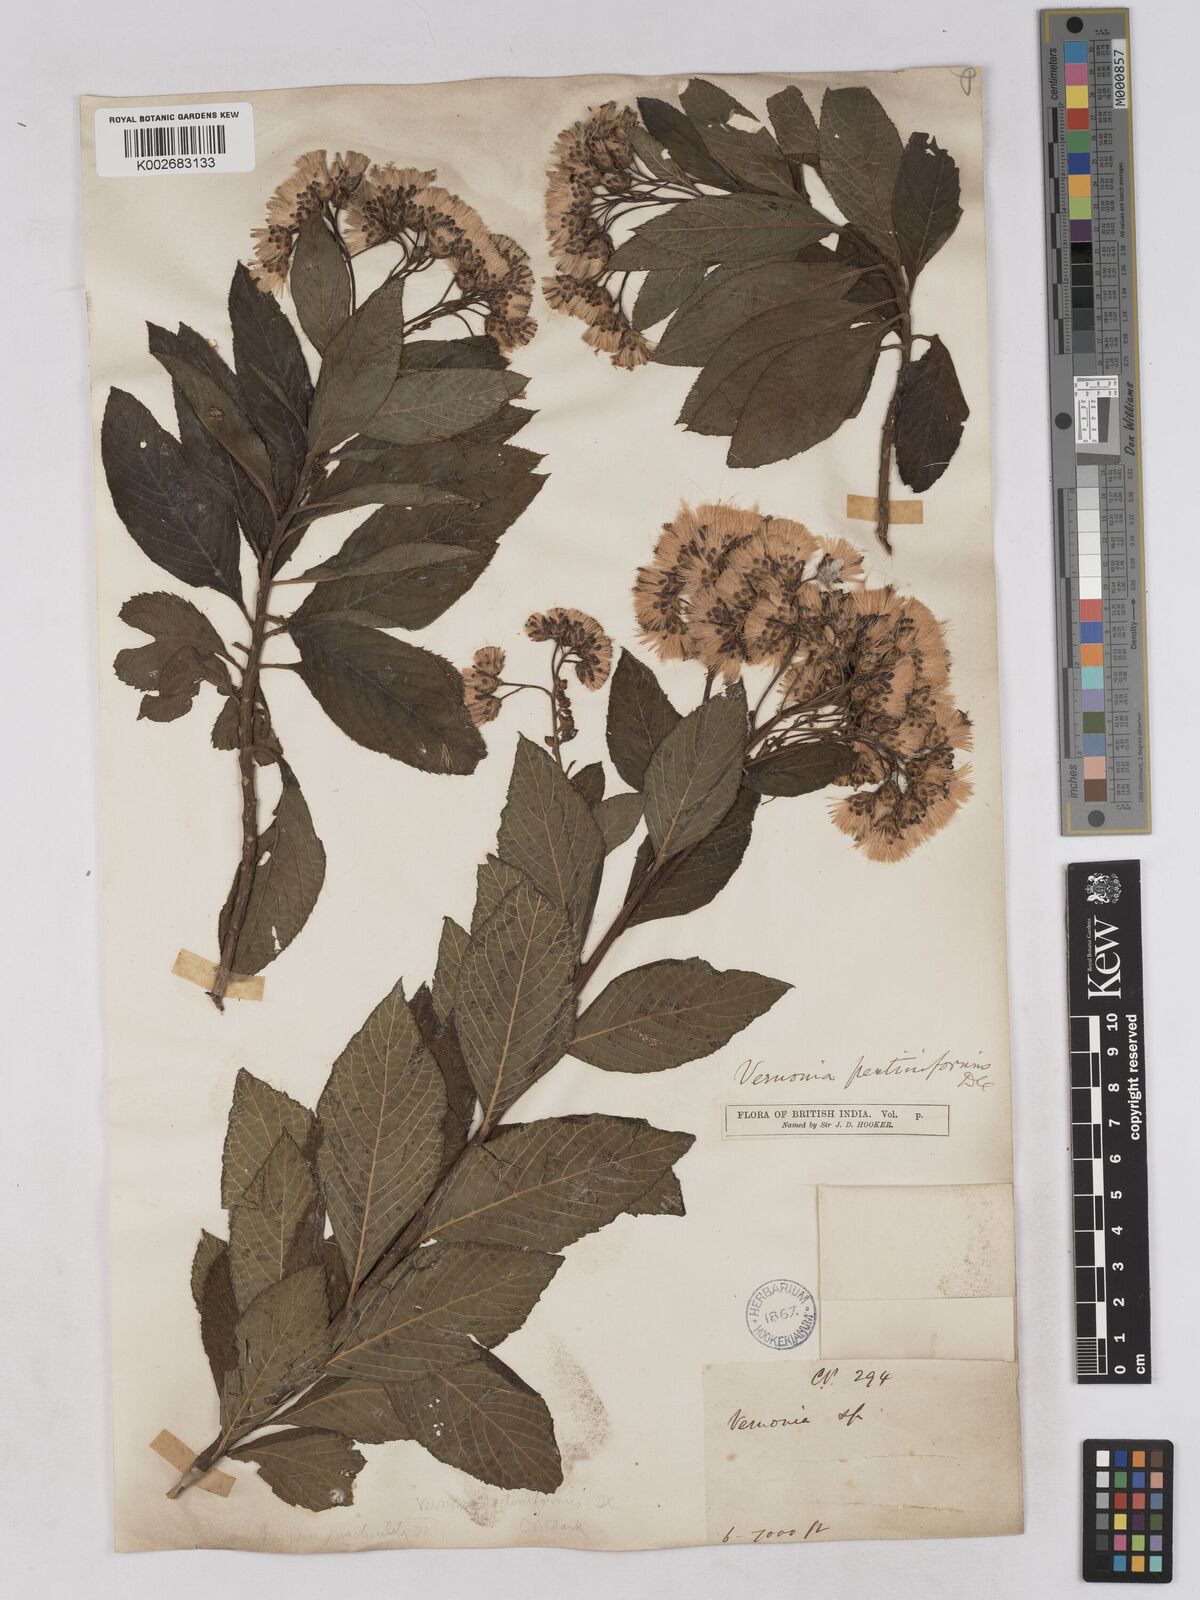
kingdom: Plantae
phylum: Tracheophyta
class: Magnoliopsida
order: Asterales
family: Asteraceae
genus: Gymnanthemum
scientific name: Gymnanthemum pectiniforme
